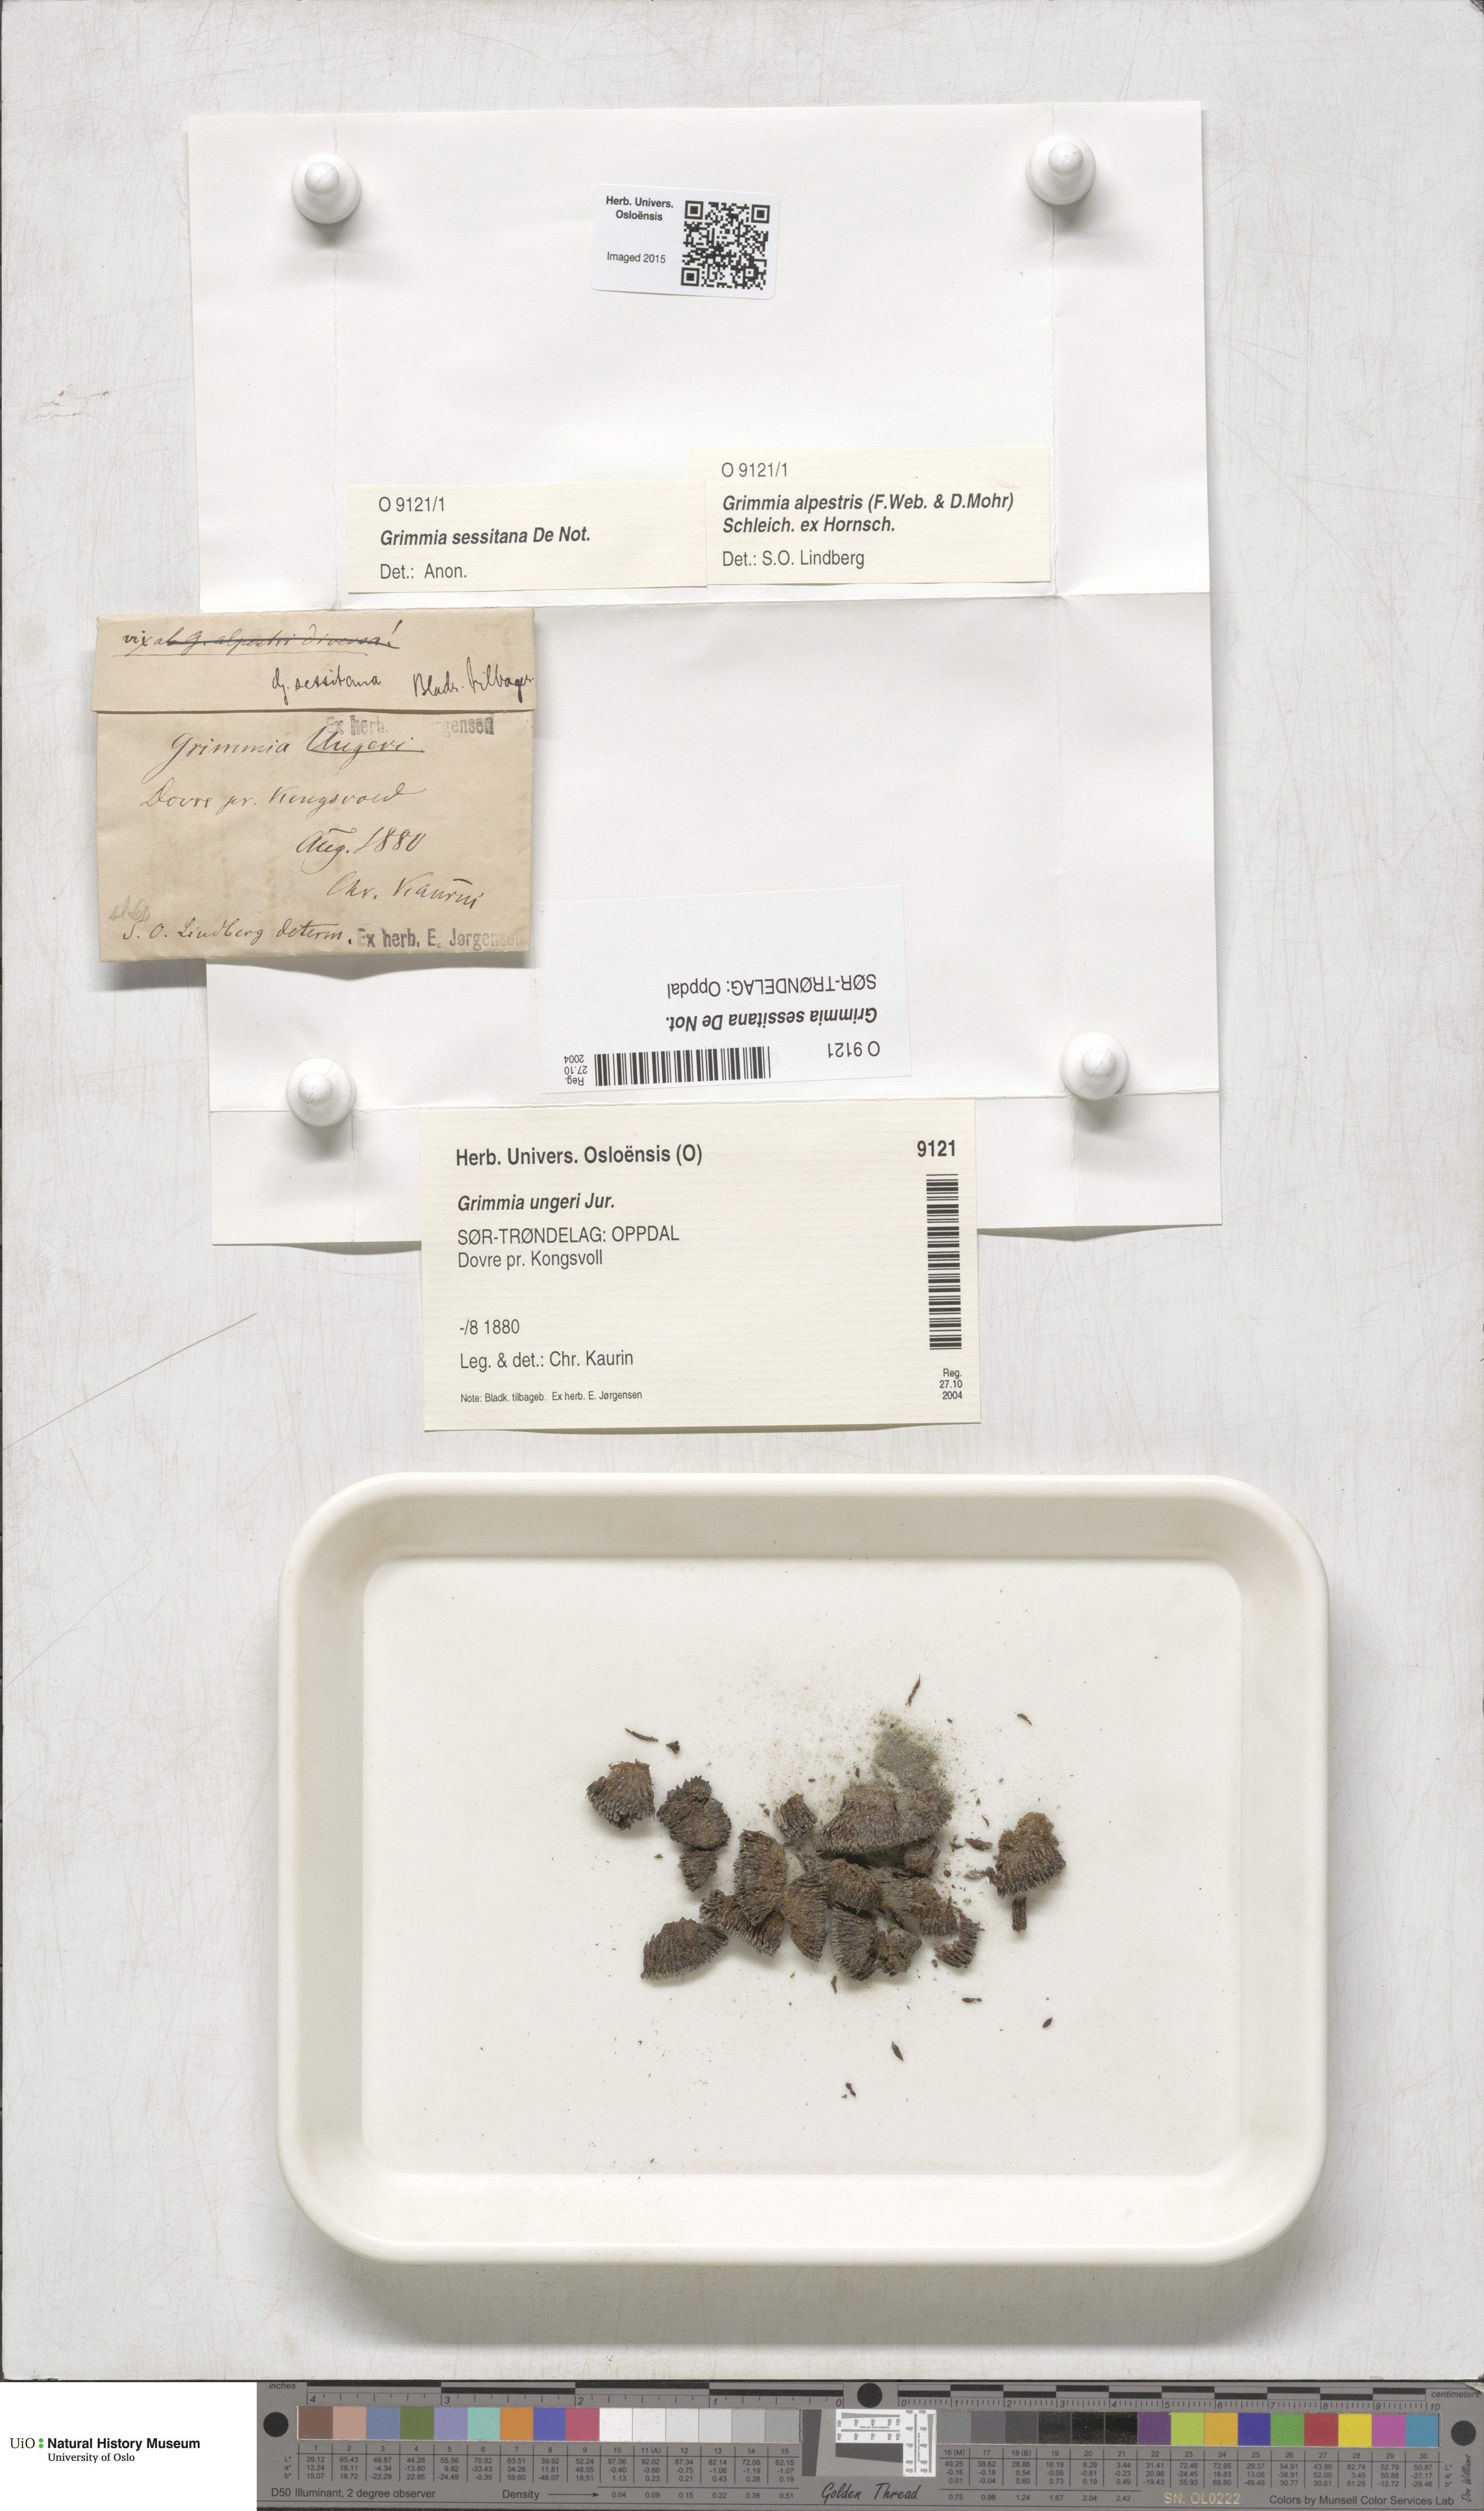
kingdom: Plantae
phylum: Bryophyta
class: Bryopsida
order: Grimmiales
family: Grimmiaceae
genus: Grimmia
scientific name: Grimmia reflexidens
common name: Alpine grimmia
